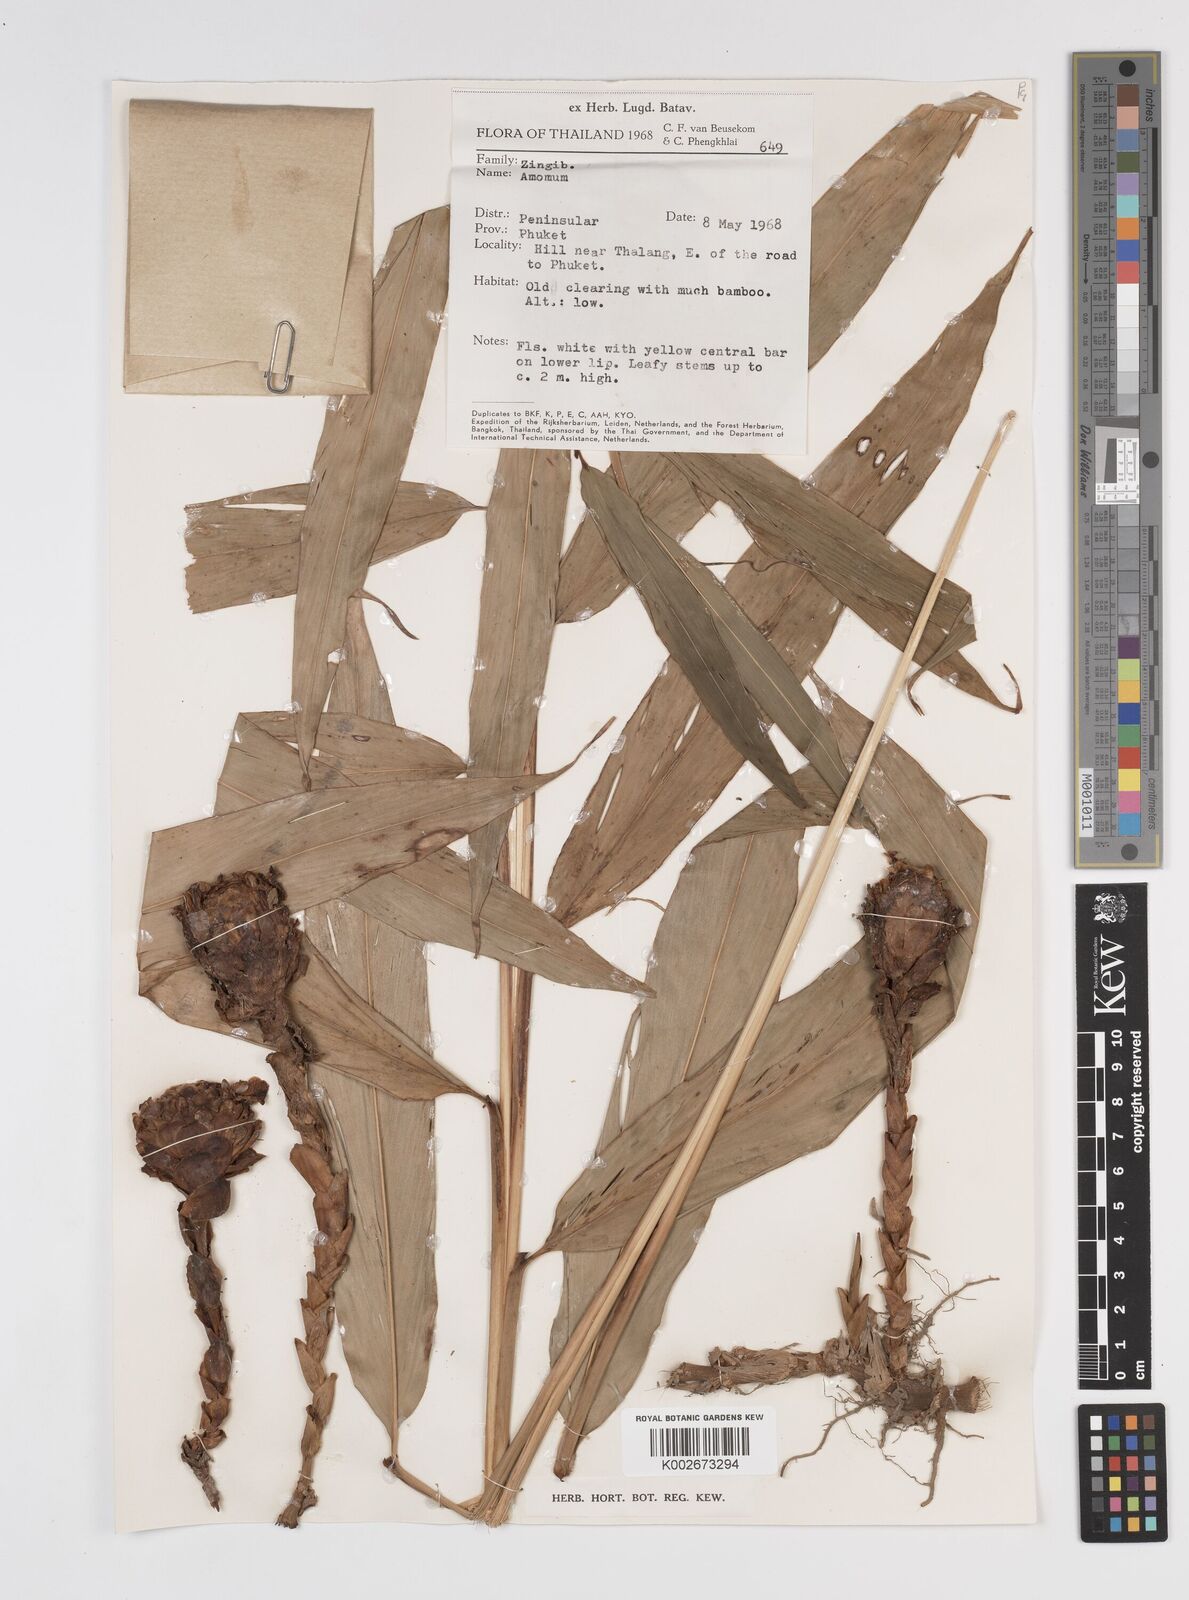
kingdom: Plantae
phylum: Tracheophyta
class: Liliopsida
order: Zingiberales
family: Zingiberaceae
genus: Amomum
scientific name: Amomum
